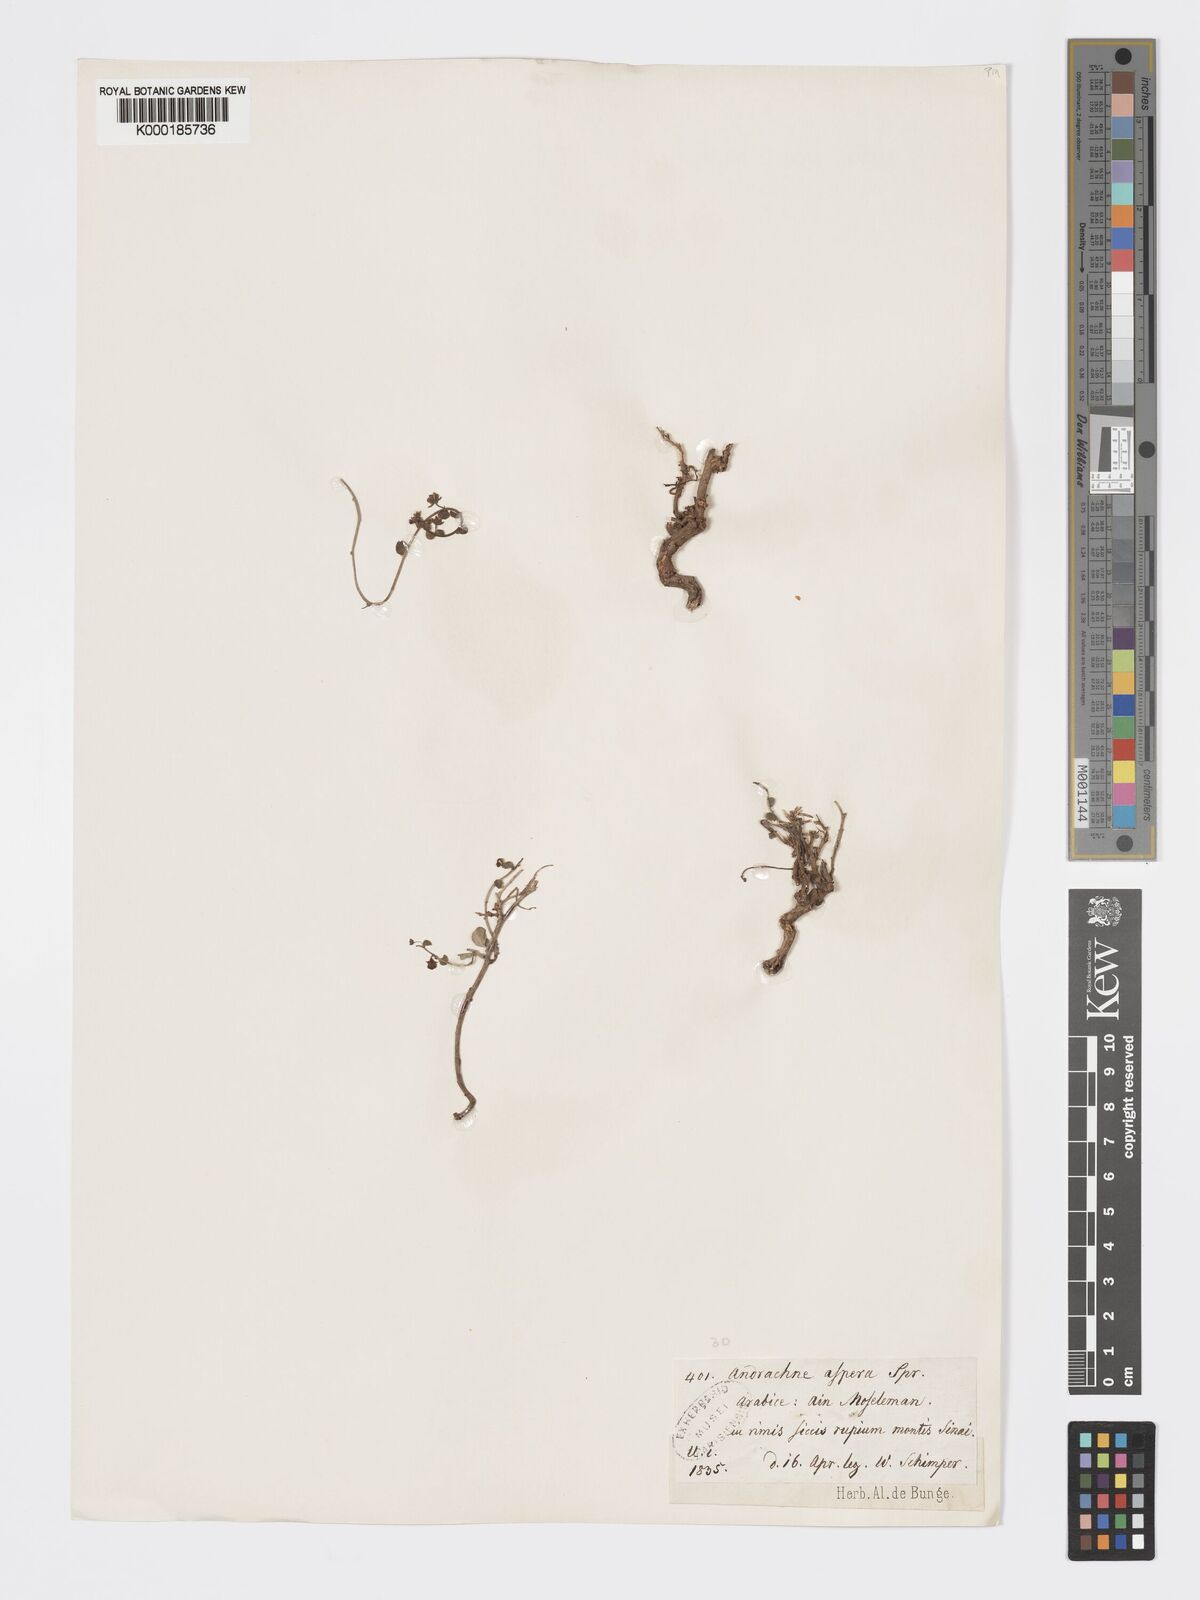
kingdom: Plantae
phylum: Tracheophyta
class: Magnoliopsida
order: Malpighiales
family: Phyllanthaceae
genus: Andrachne
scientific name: Andrachne aspera
